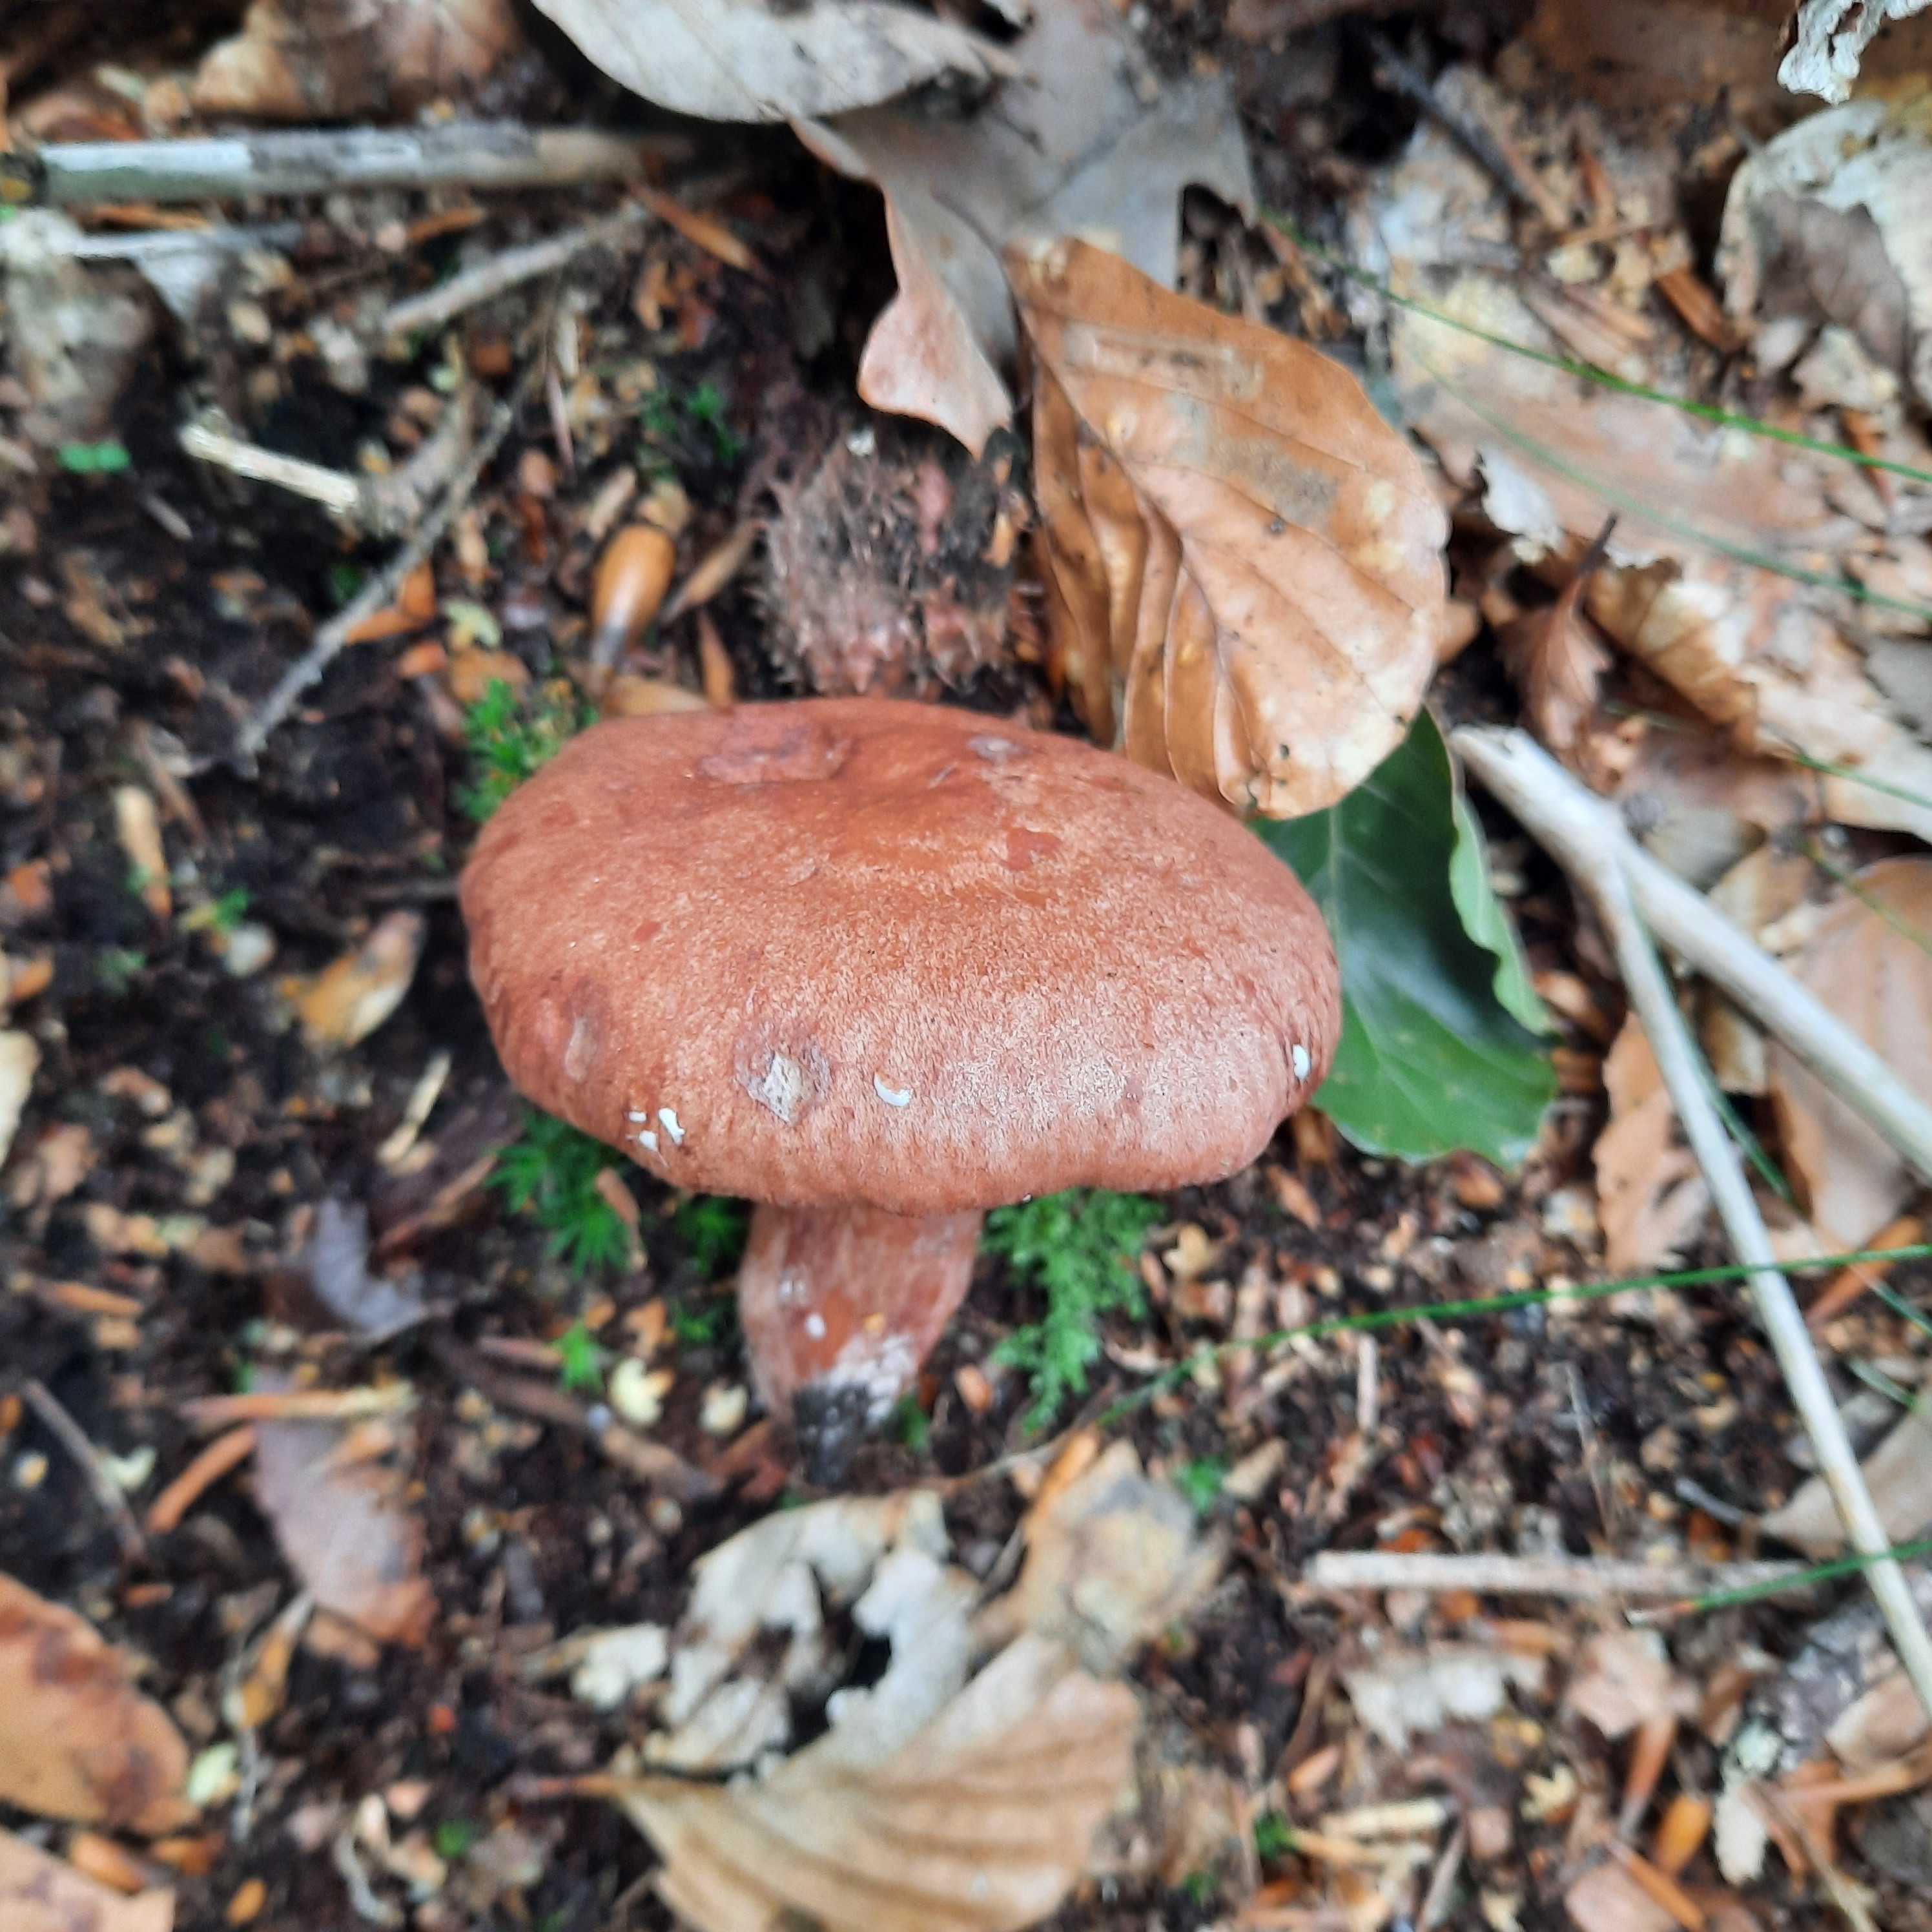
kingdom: Fungi
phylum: Basidiomycota
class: Agaricomycetes
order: Russulales
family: Russulaceae
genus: Lactarius
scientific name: Lactarius quietus
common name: ege-mælkehat
